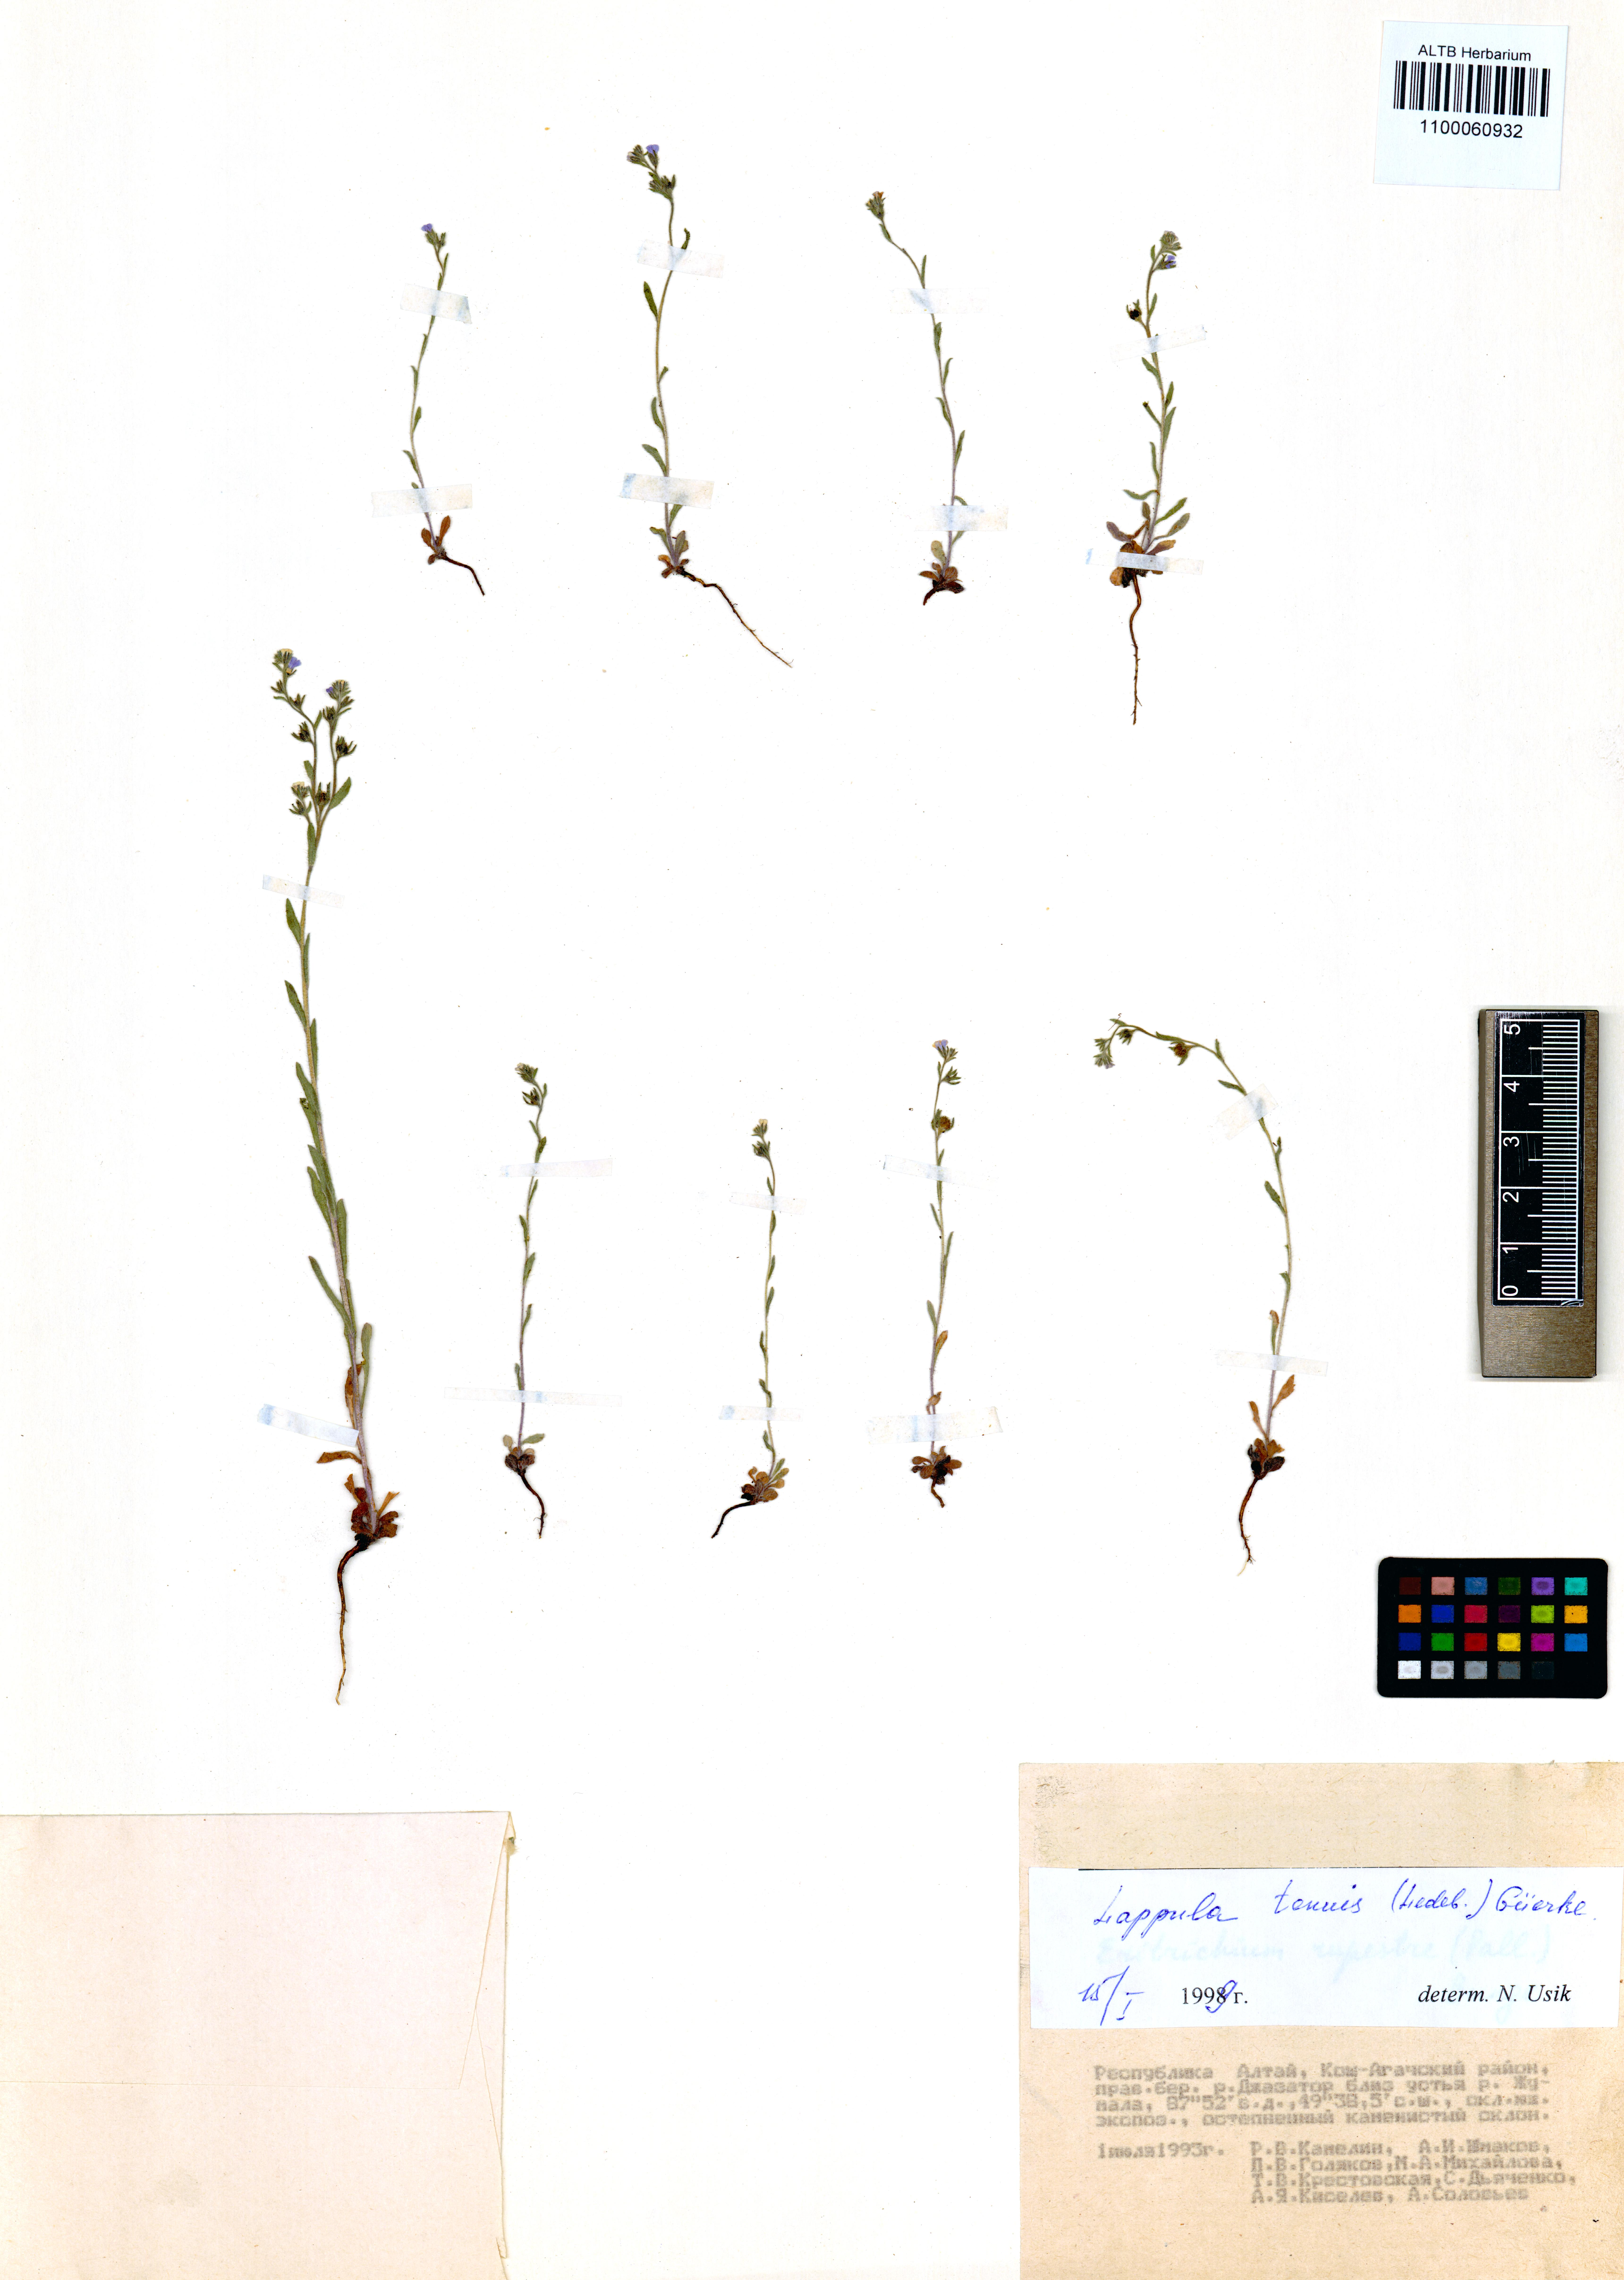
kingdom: Plantae
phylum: Tracheophyta
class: Magnoliopsida
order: Boraginales
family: Boraginaceae
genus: Lappula
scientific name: Lappula tenuis
